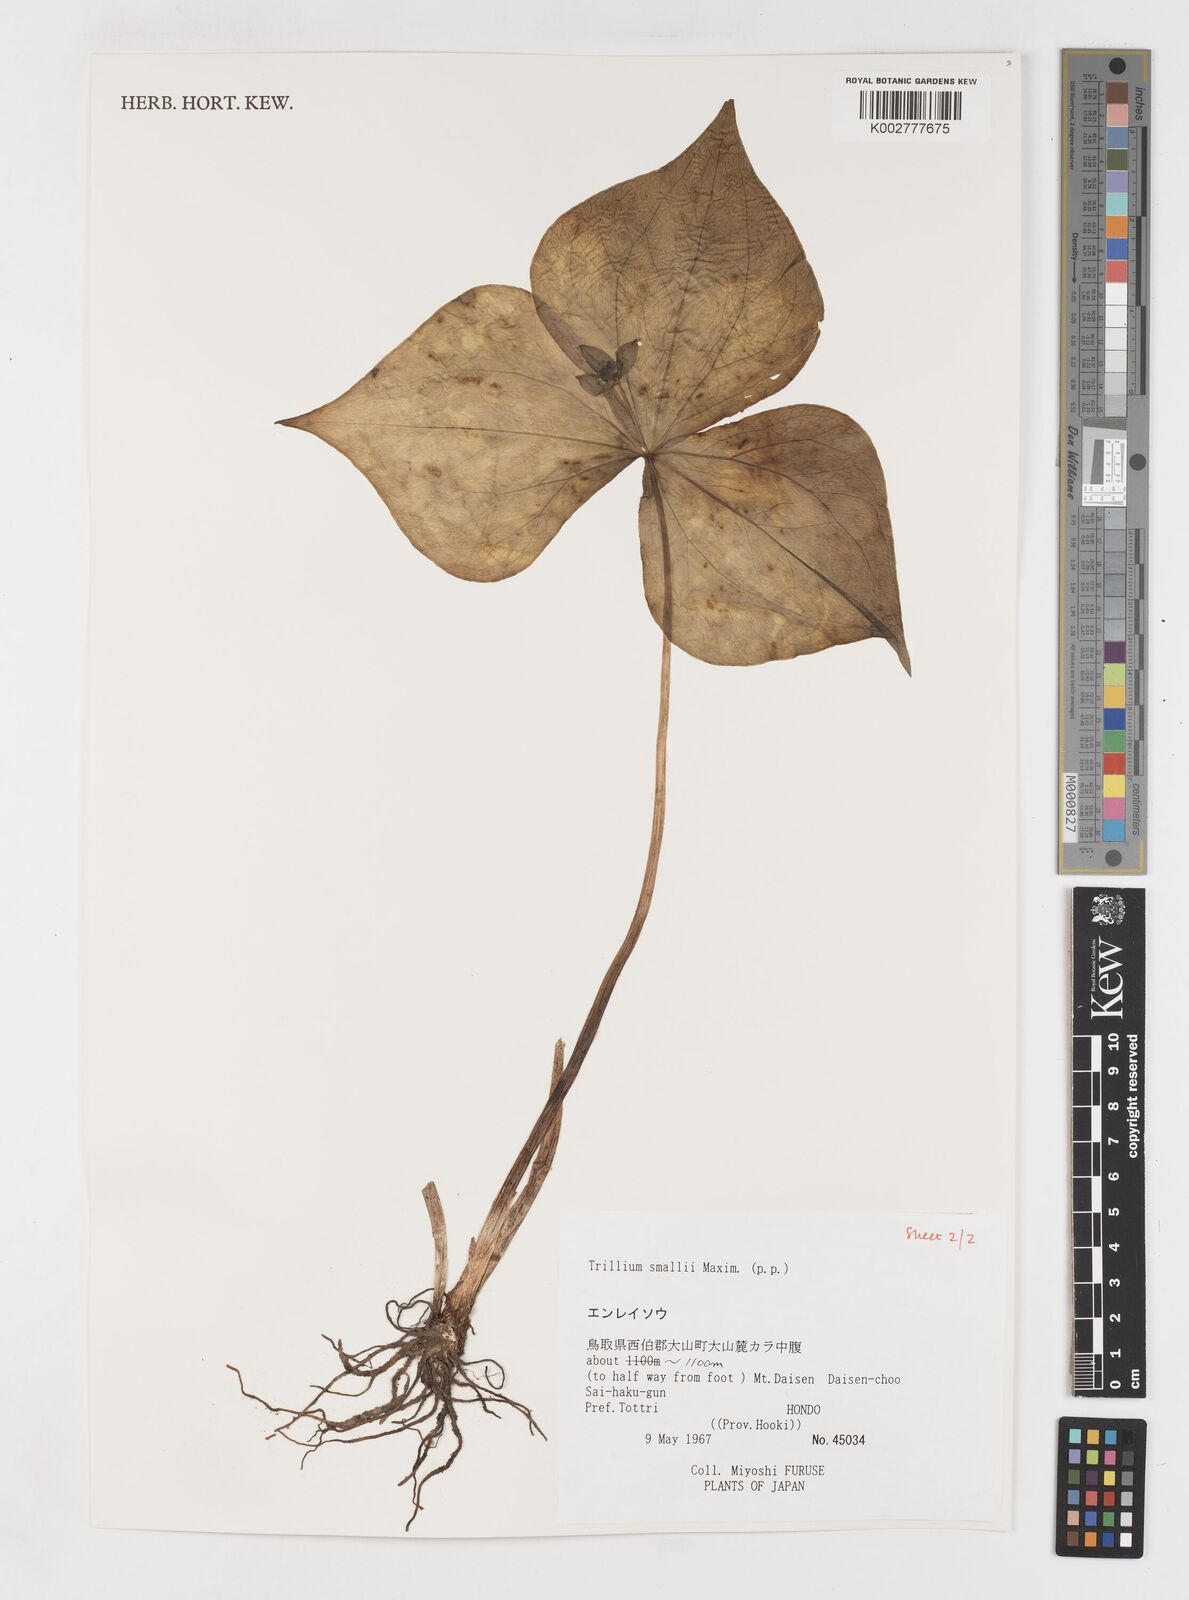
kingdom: Plantae
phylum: Tracheophyta
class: Liliopsida
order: Liliales
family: Melanthiaceae
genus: Trillium
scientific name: Trillium smallii
